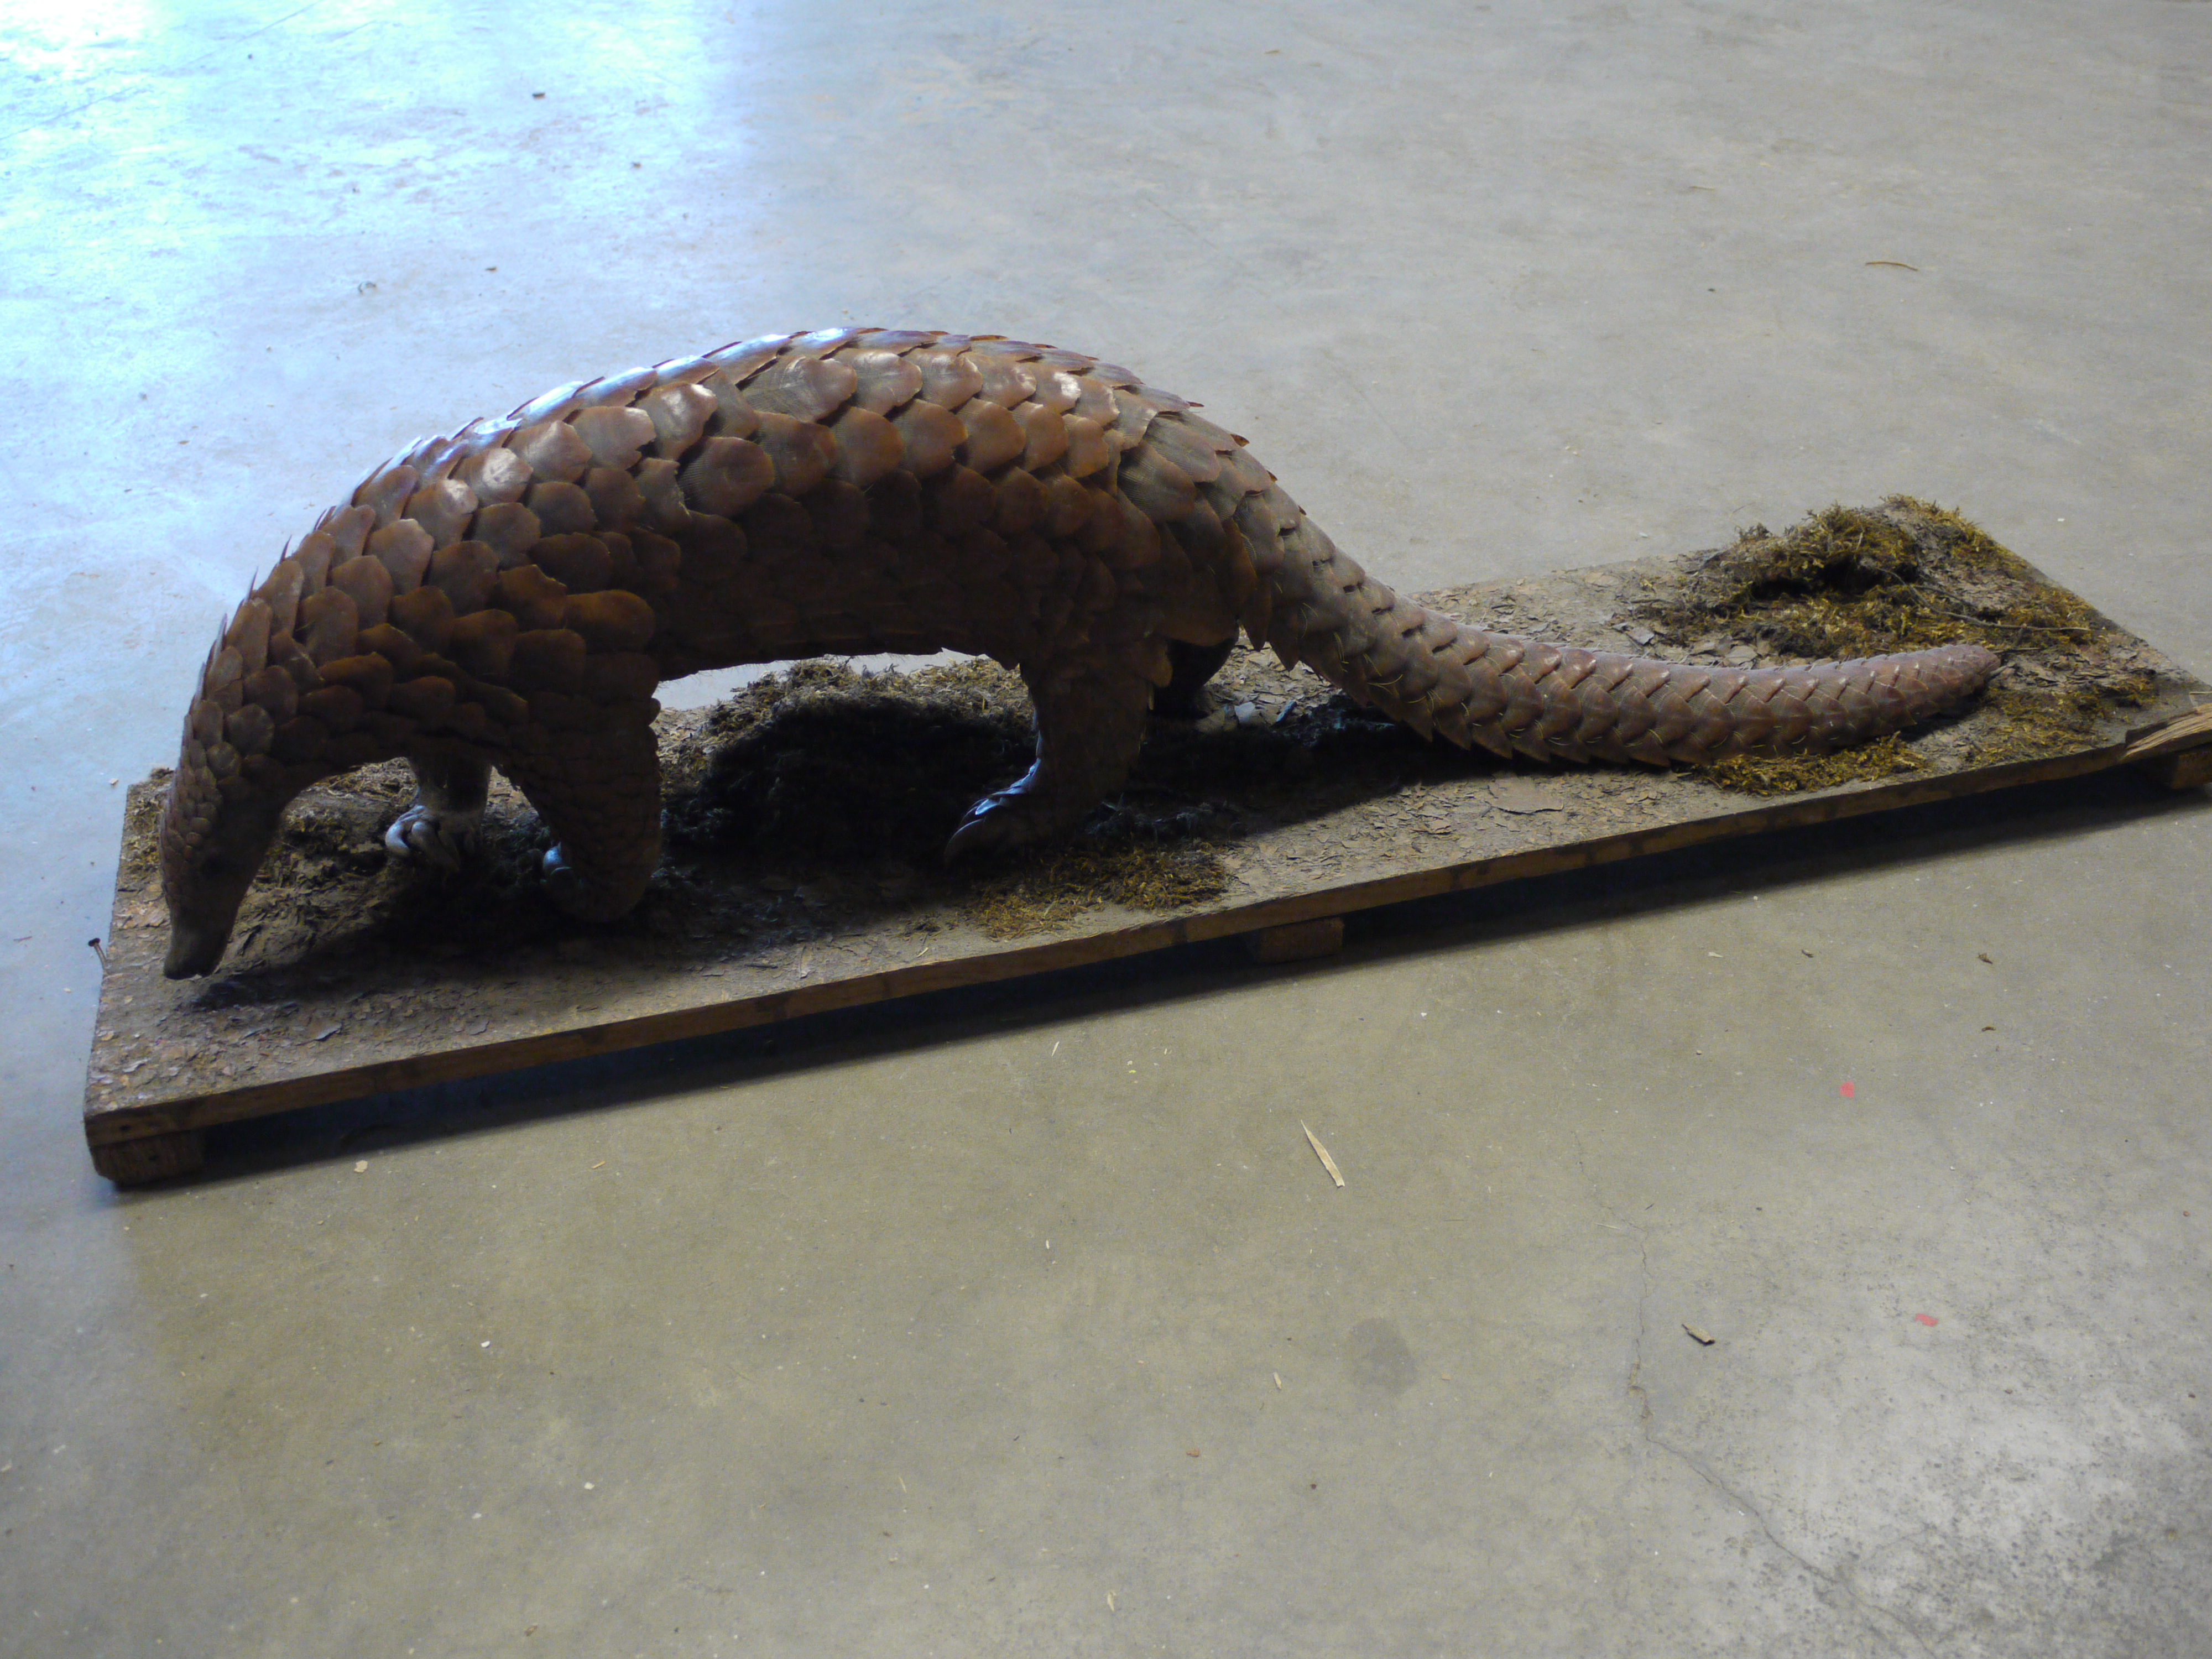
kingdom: Animalia
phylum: Chordata
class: Mammalia
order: Pholidota
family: Manidae
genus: Manis
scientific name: Manis gigantea
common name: Giant pangolin
